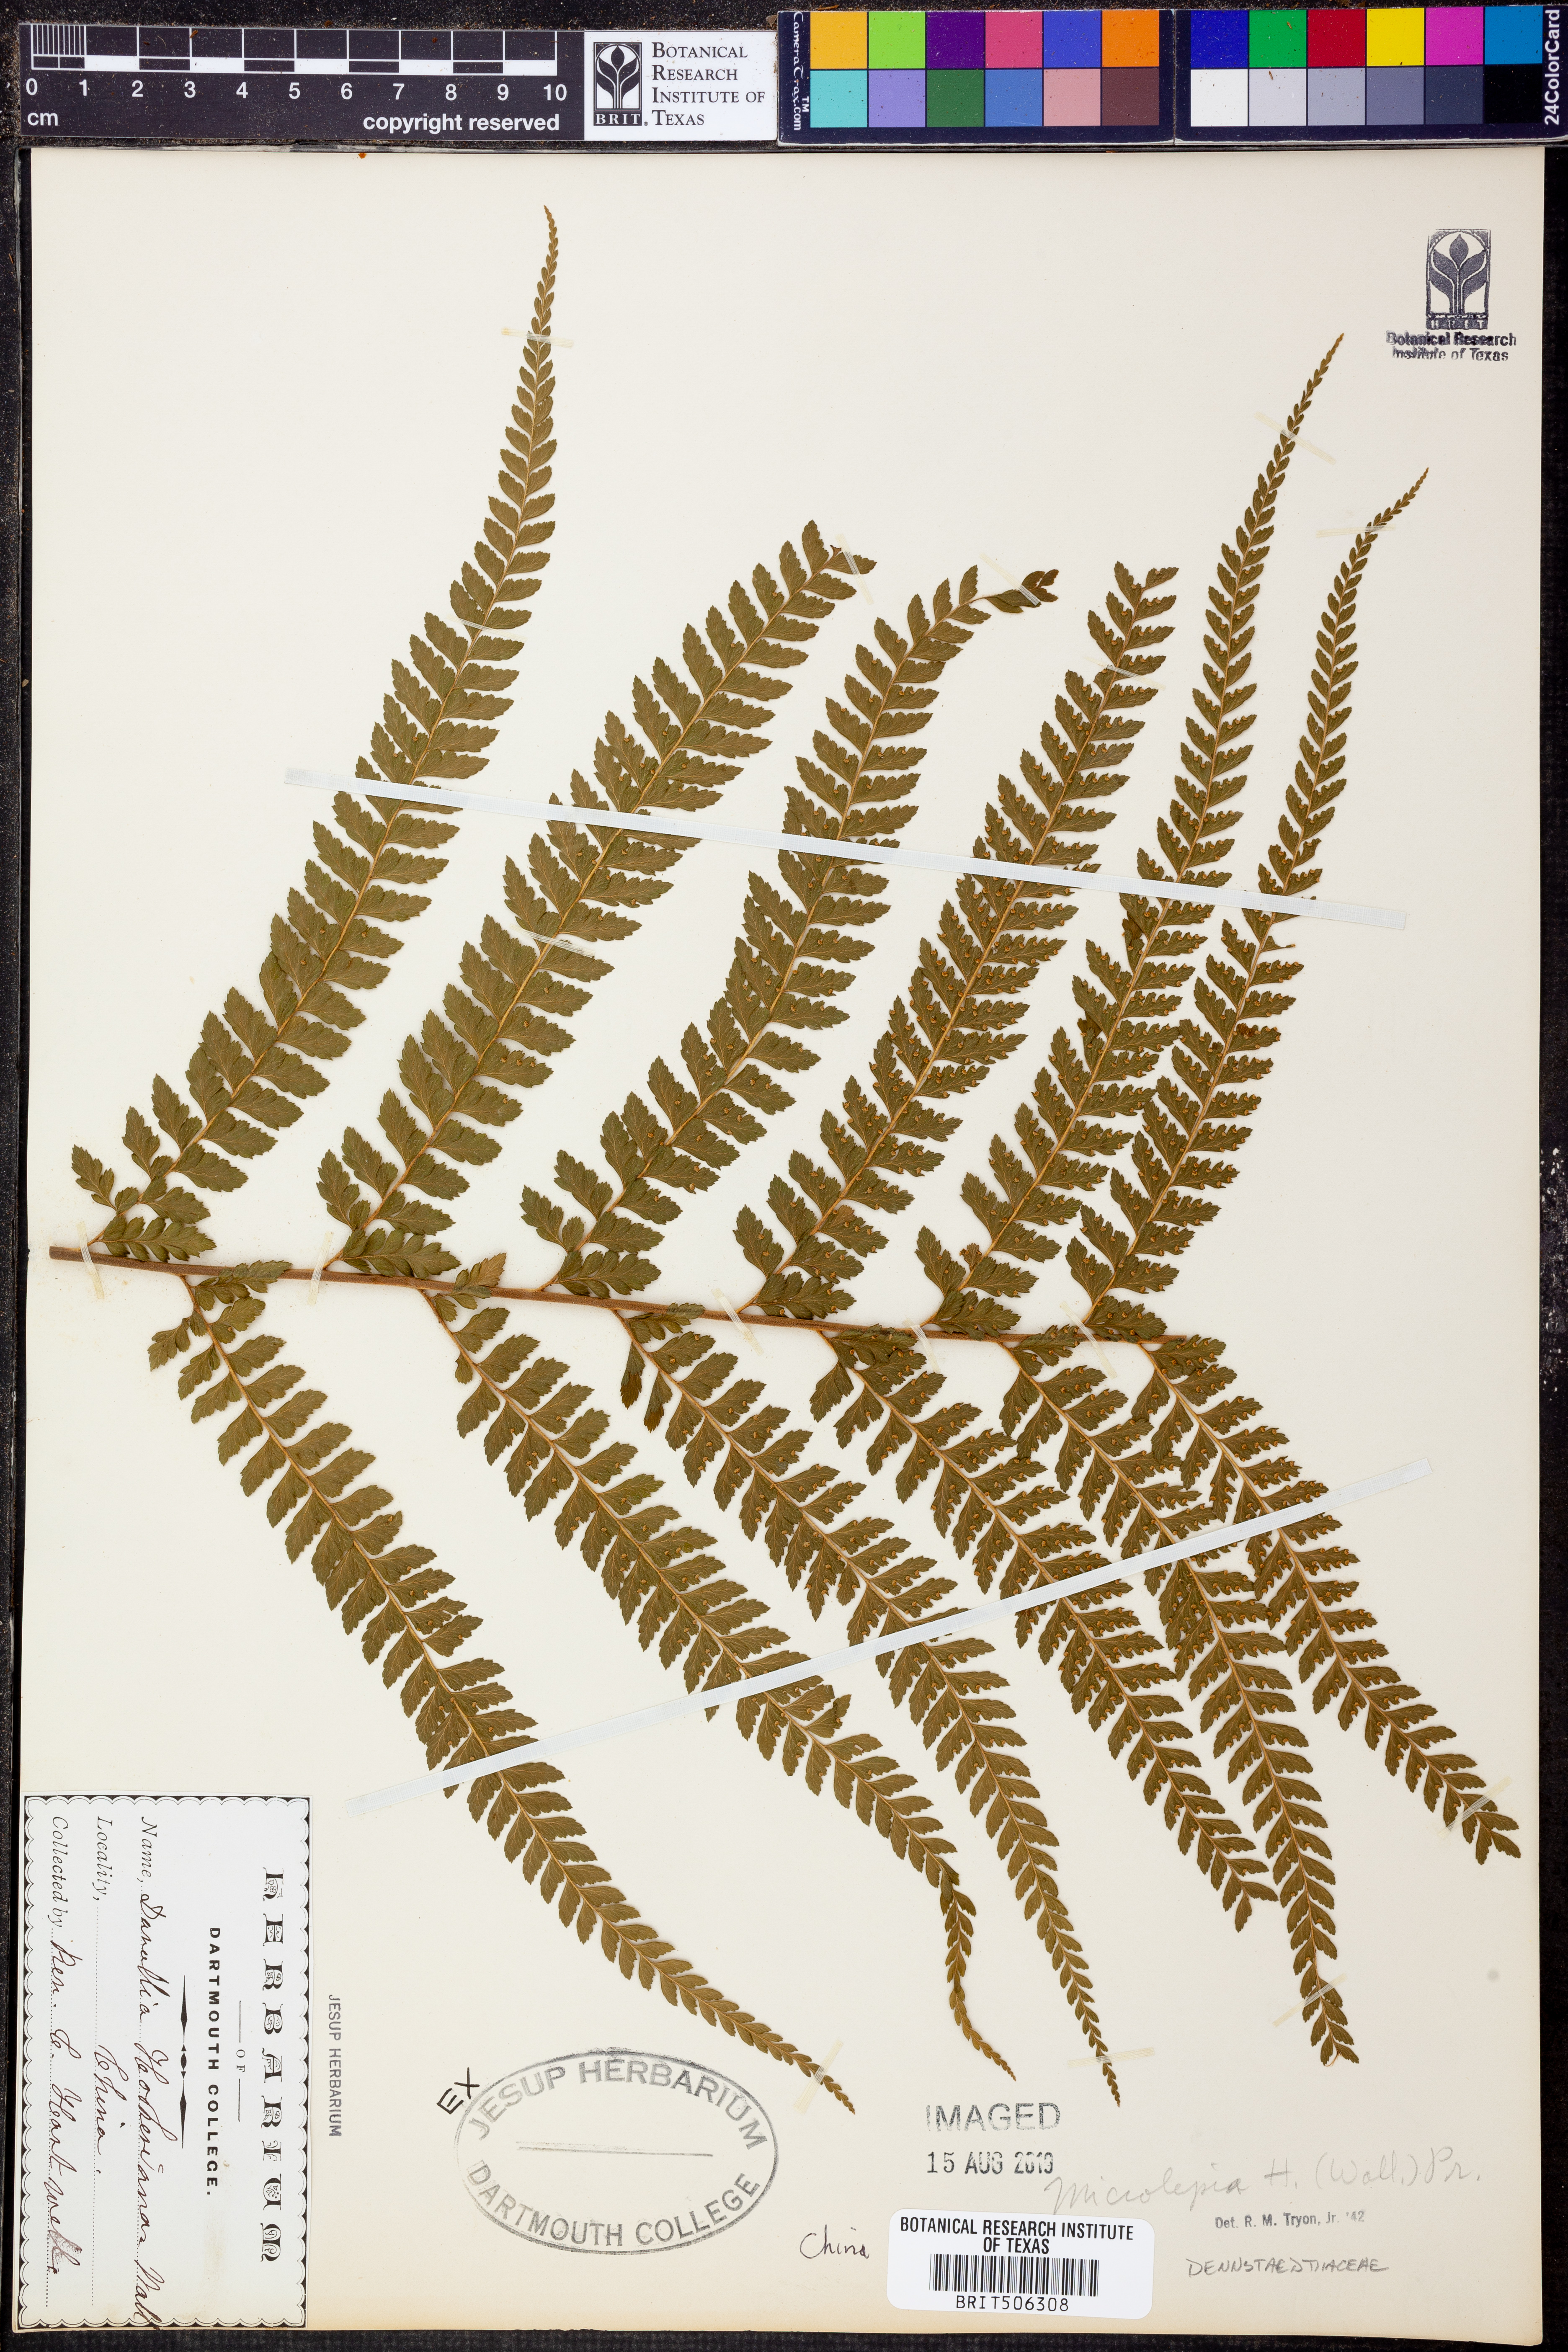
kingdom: Plantae
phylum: Tracheophyta
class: Polypodiopsida
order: Polypodiales
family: Dennstaedtiaceae
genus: Microlepia
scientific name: Microlepia hookeriana
